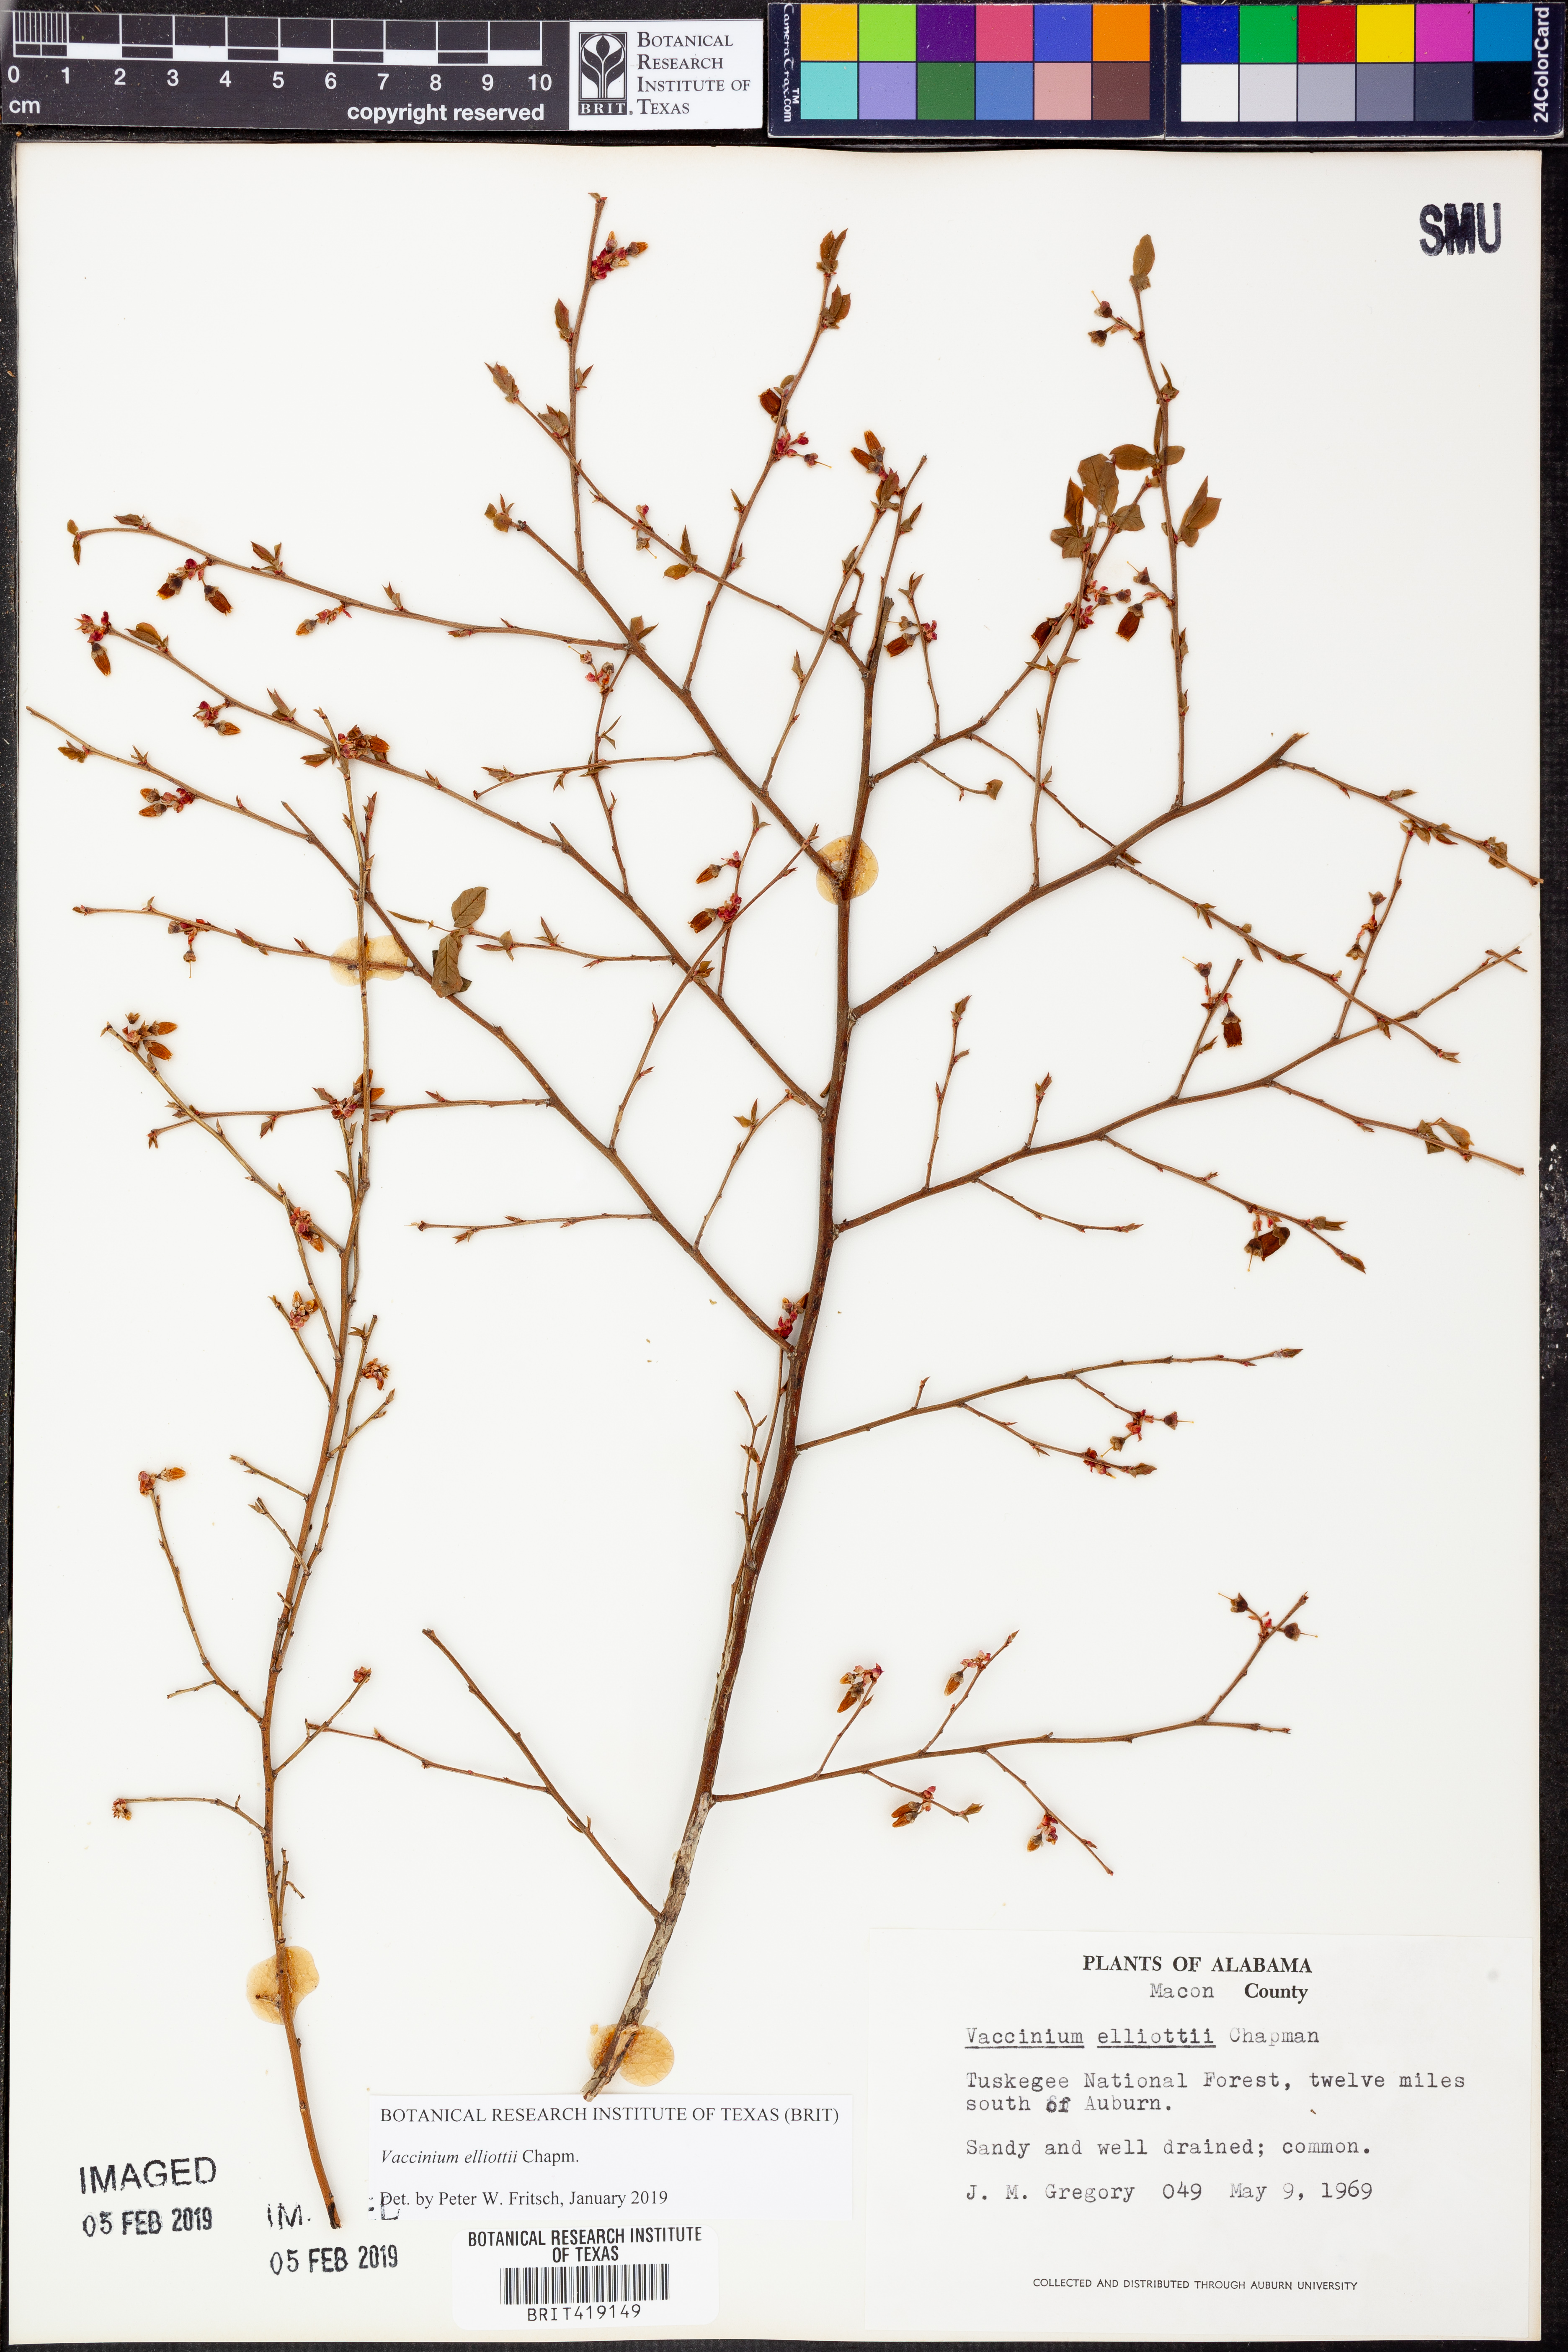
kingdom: Plantae
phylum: Tracheophyta
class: Magnoliopsida
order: Ericales
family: Ericaceae
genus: Vaccinium
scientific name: Vaccinium corymbosum
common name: Blueberry
